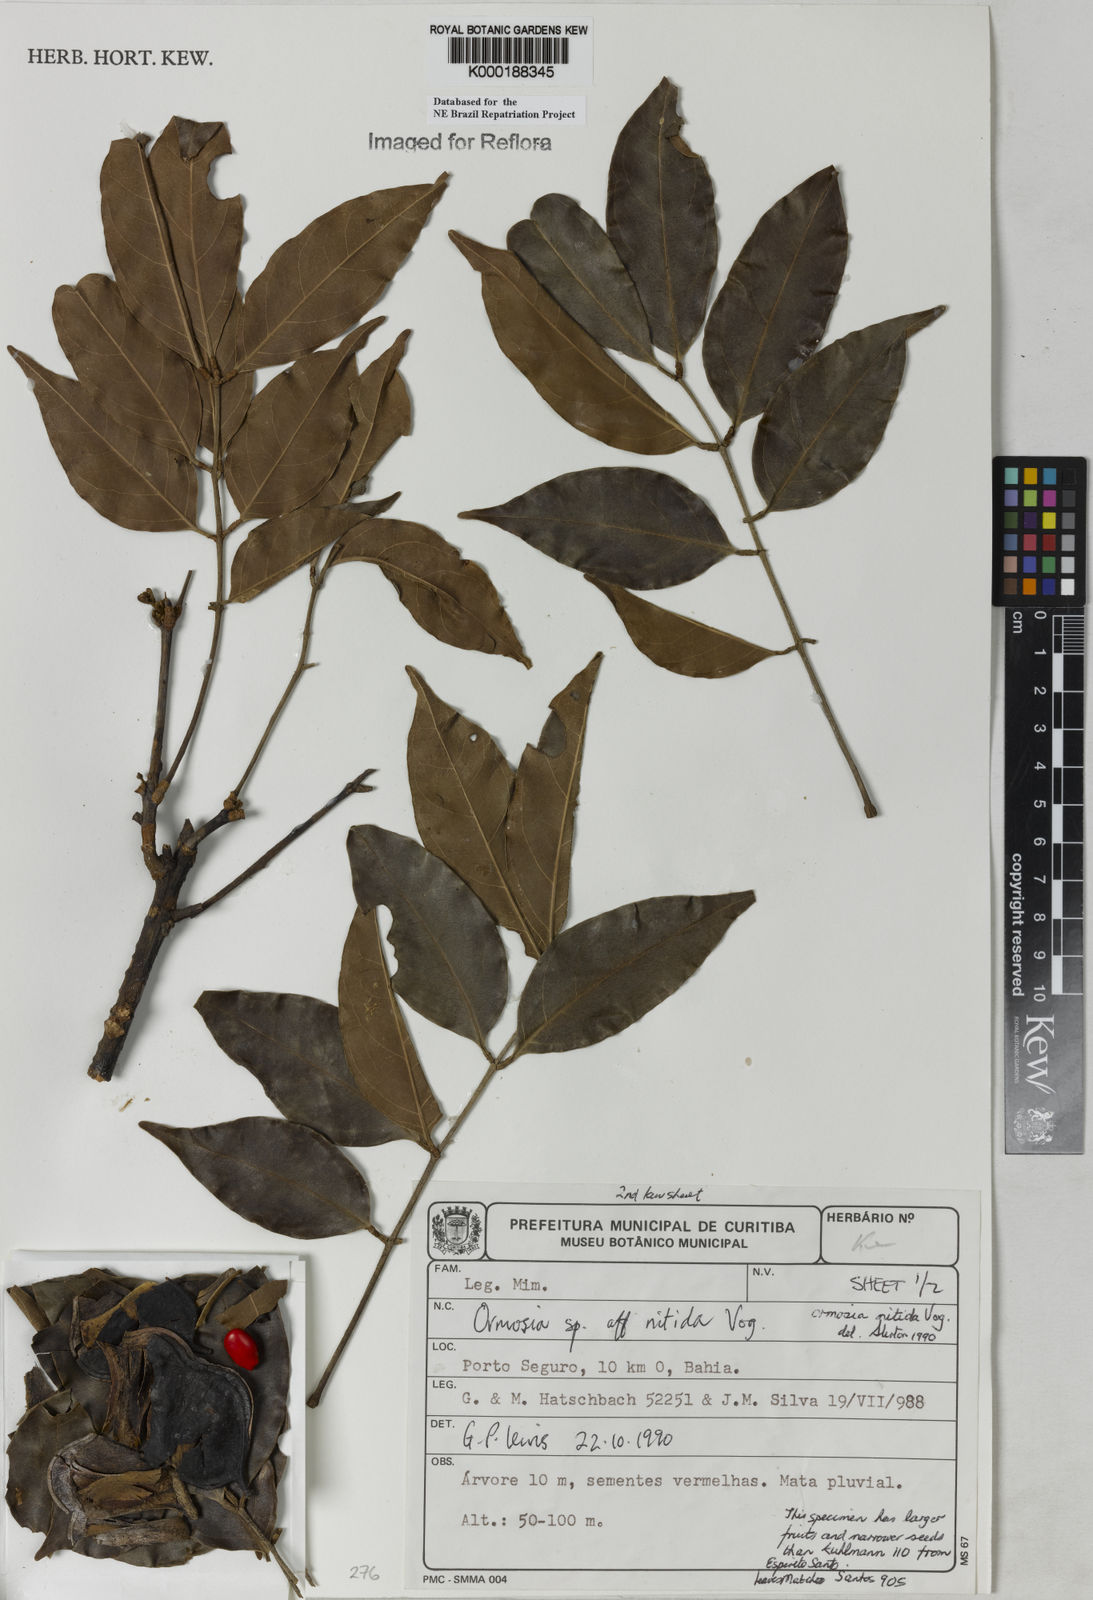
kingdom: Plantae
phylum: Tracheophyta
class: Magnoliopsida
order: Fabales
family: Fabaceae
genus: Ormosia
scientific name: Ormosia nitida
